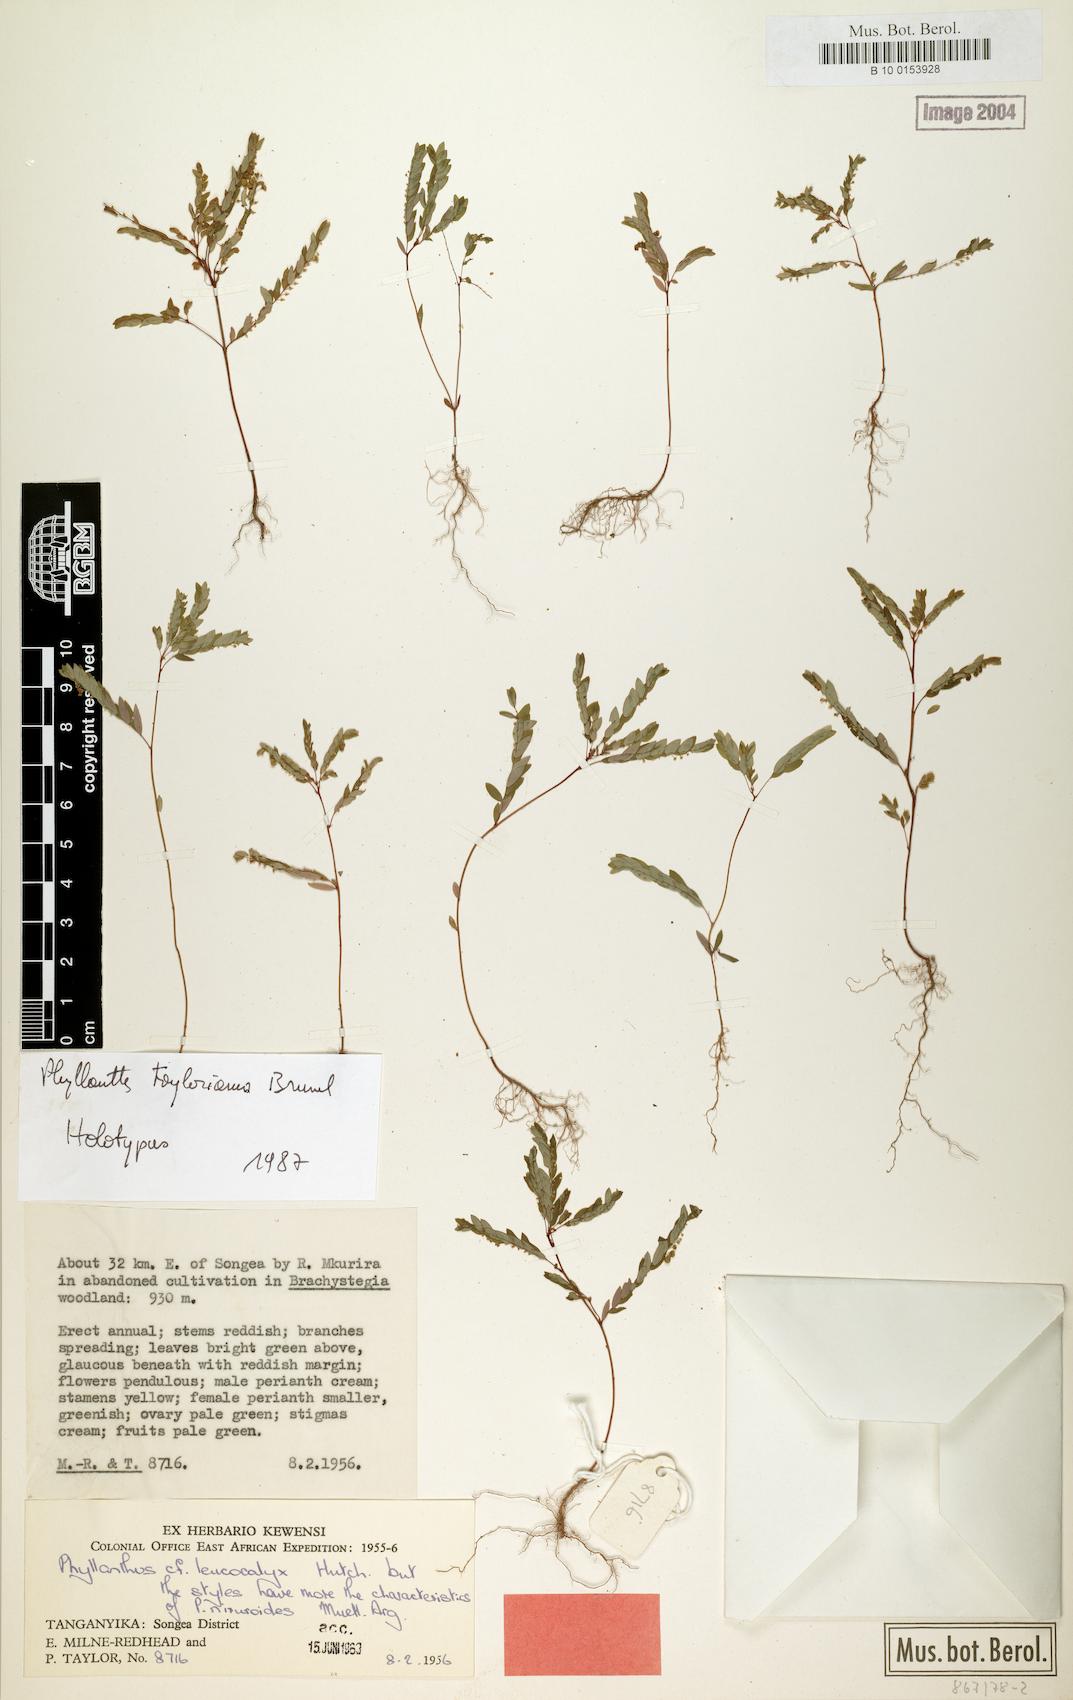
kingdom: Plantae
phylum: Tracheophyta
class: Magnoliopsida
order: Malpighiales
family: Phyllanthaceae
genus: Phyllanthus
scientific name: Phyllanthus parvus
